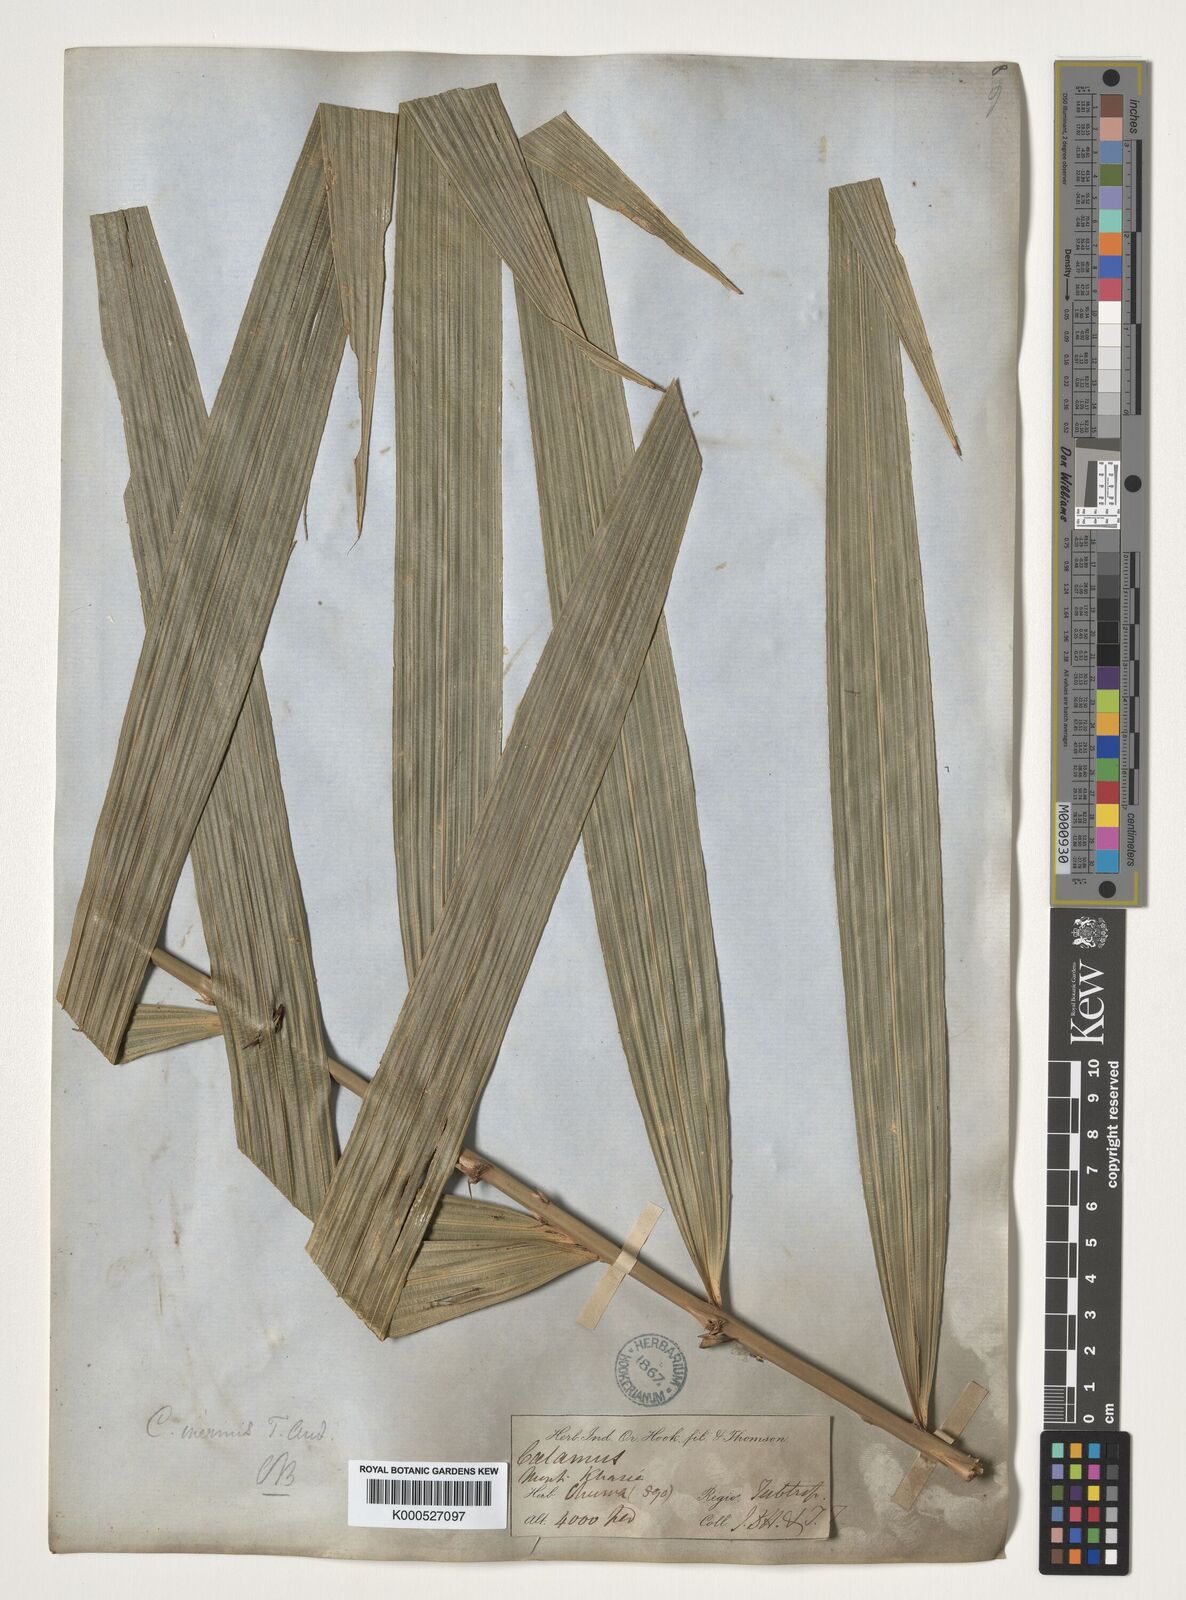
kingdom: Plantae
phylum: Tracheophyta
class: Liliopsida
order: Arecales
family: Arecaceae
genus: Calamus
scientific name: Calamus latifolius
